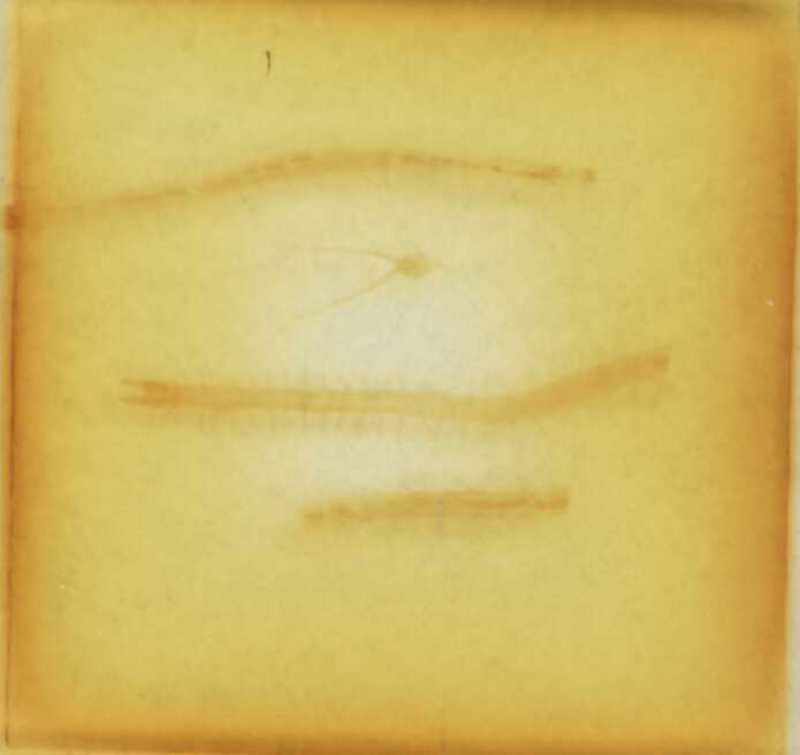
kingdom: Animalia
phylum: Arthropoda
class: Chilopoda
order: Geophilomorpha
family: Geophilidae
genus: Eurytion
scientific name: Eurytion gracillimus
